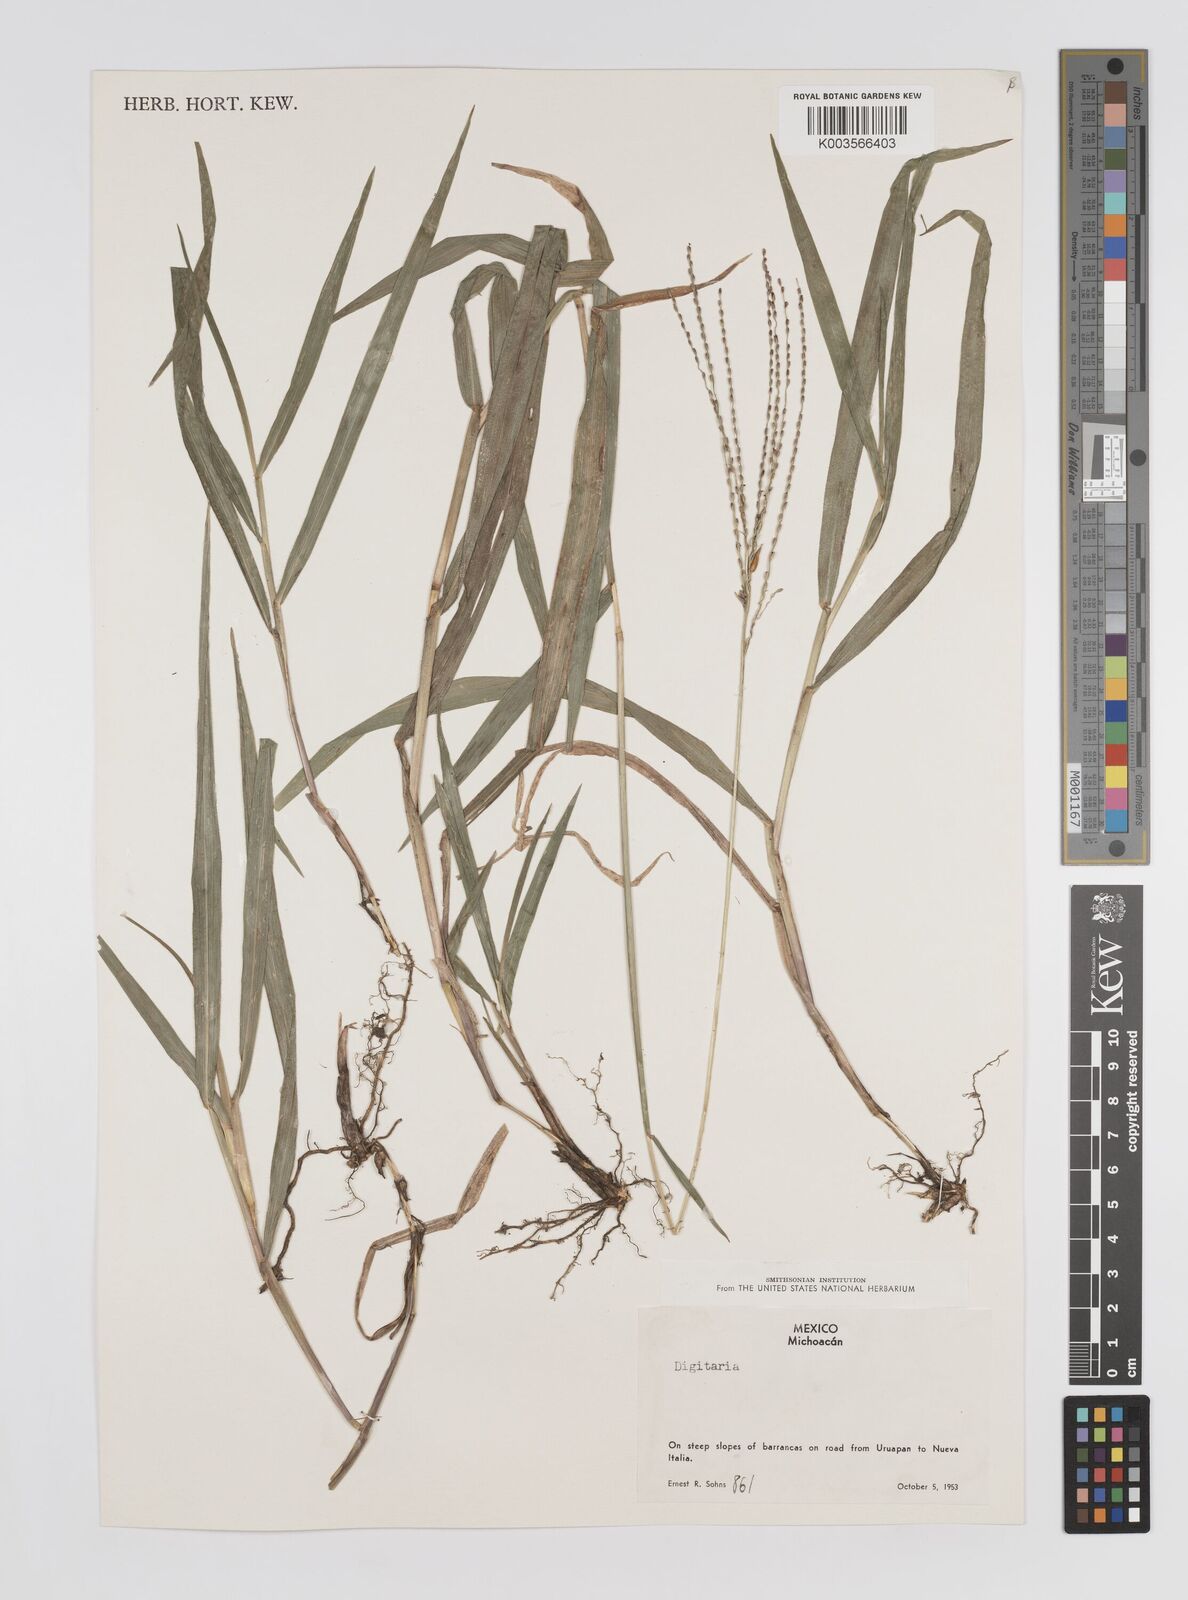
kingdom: Plantae
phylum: Tracheophyta
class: Liliopsida
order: Poales
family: Poaceae
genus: Axonopus
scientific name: Axonopus
